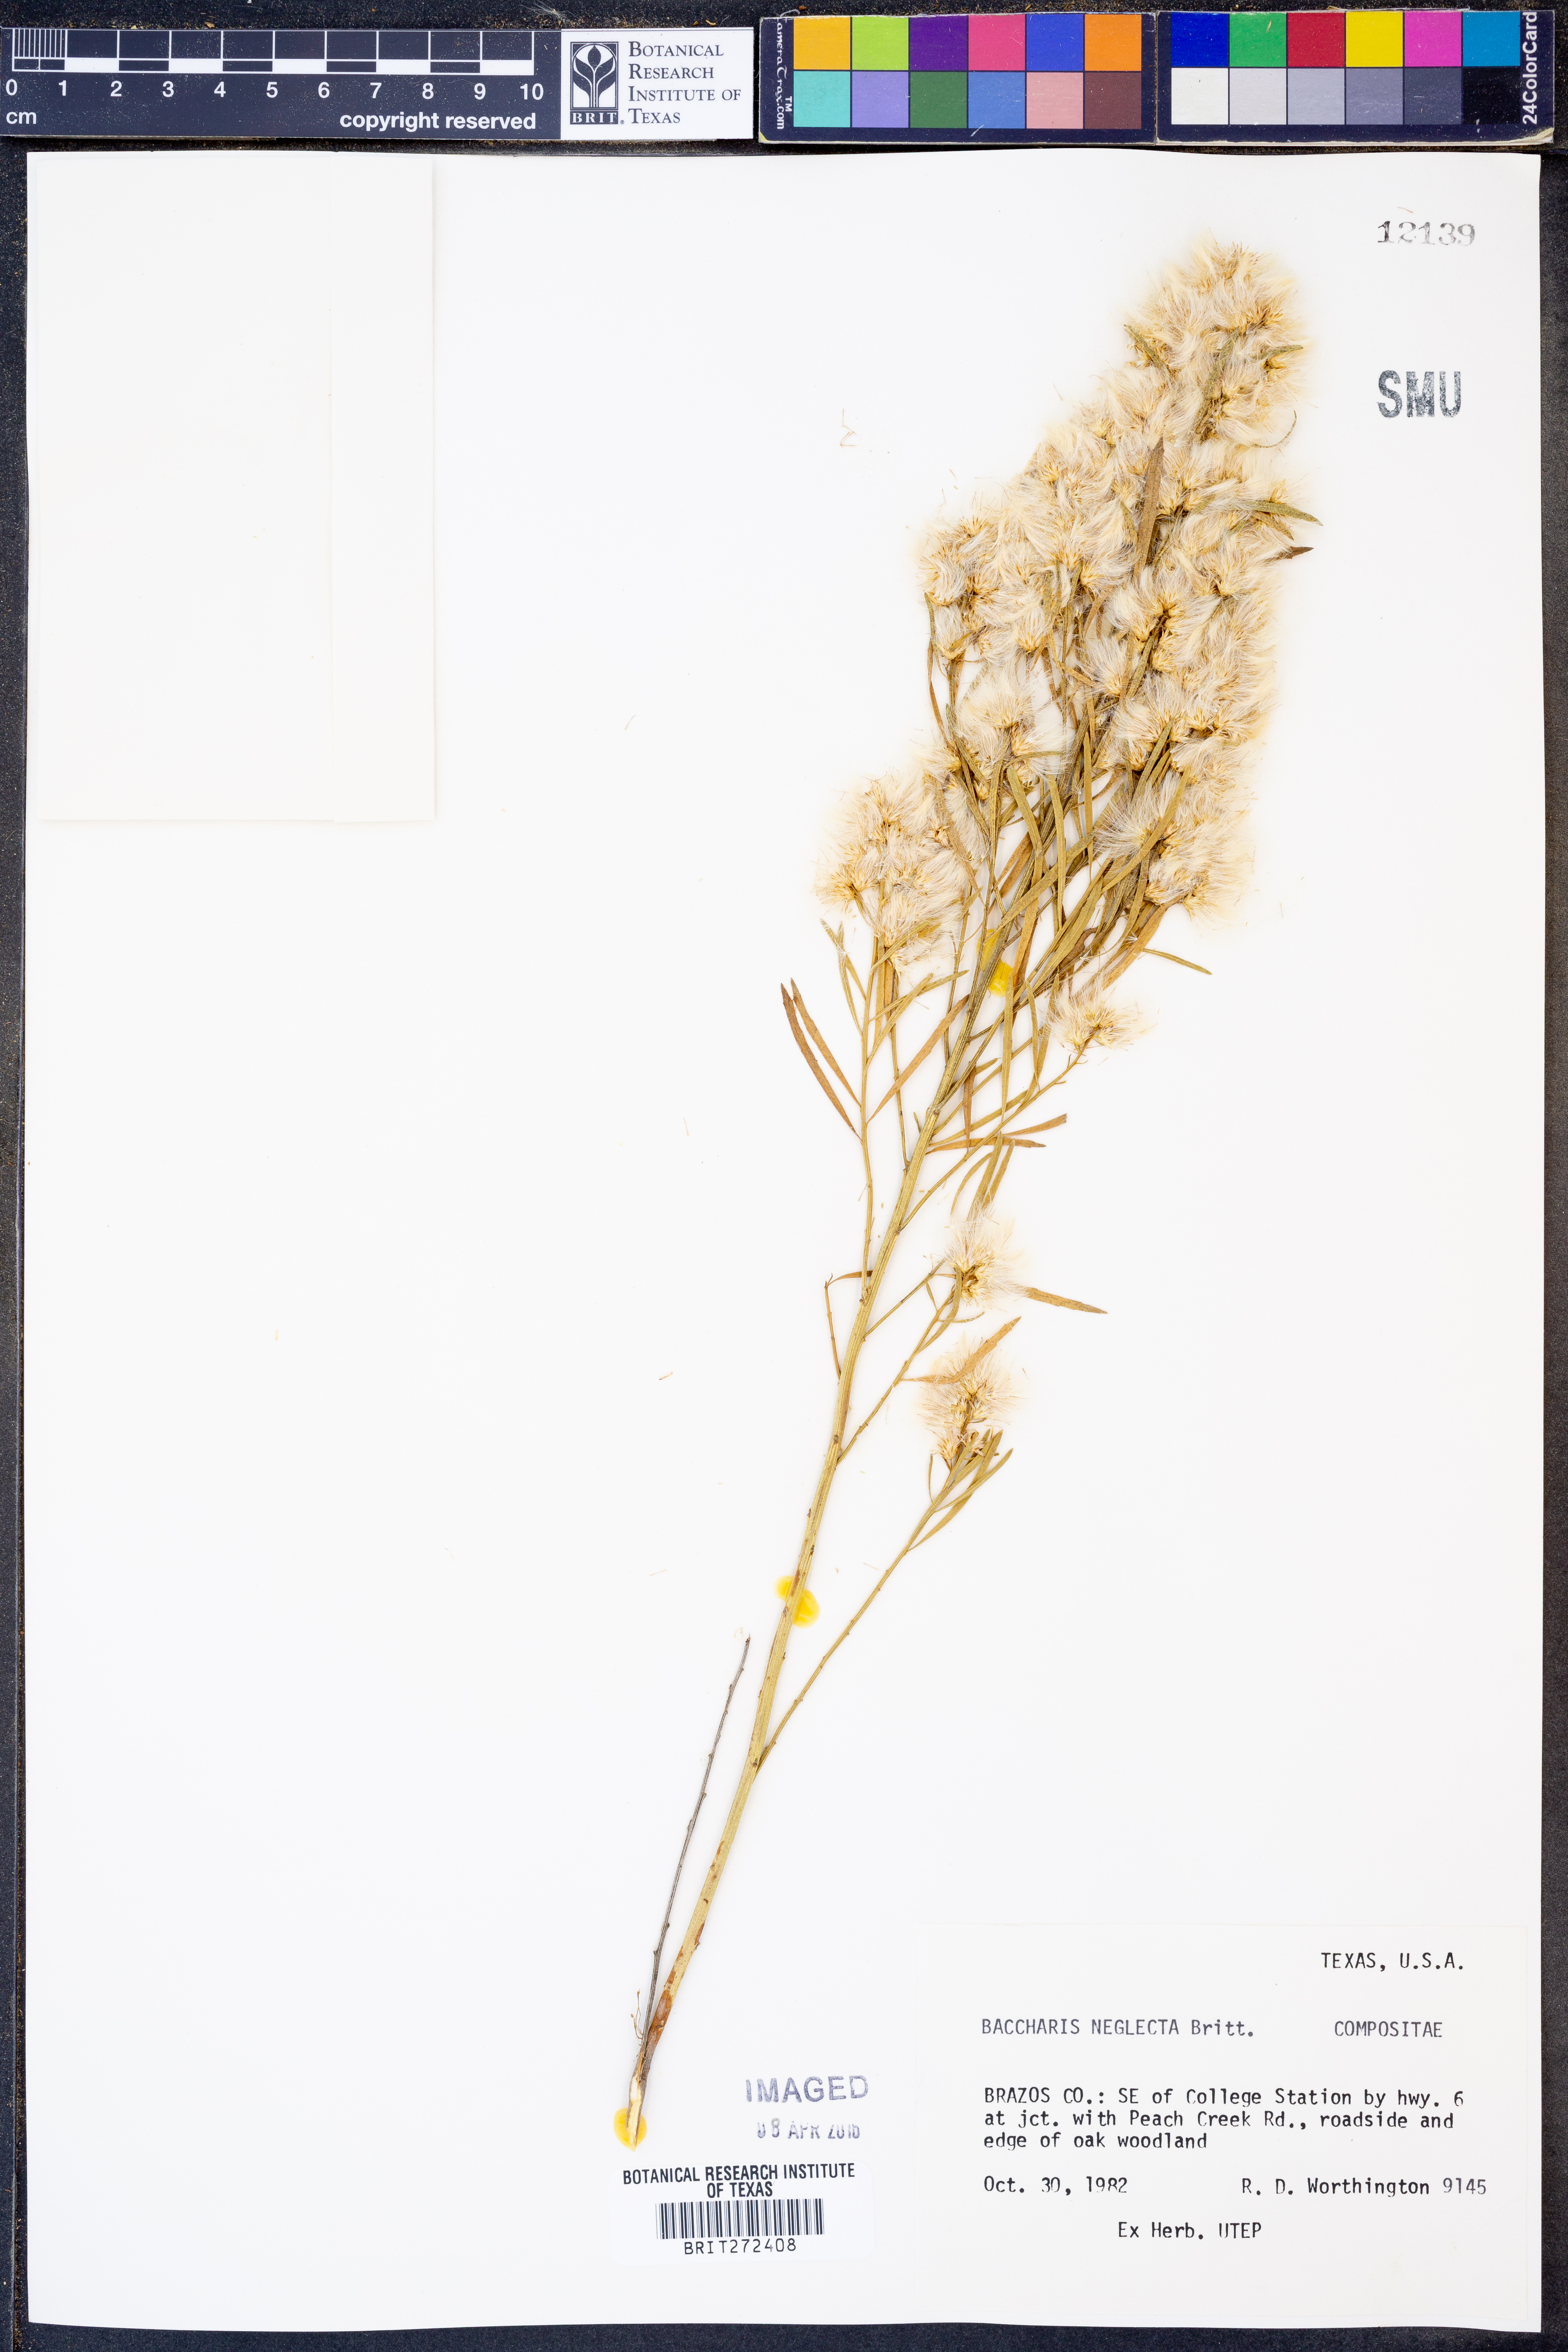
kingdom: Plantae
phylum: Tracheophyta
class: Magnoliopsida
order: Asterales
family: Asteraceae
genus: Baccharis
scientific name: Baccharis neglecta
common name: Roosevelt-weed
